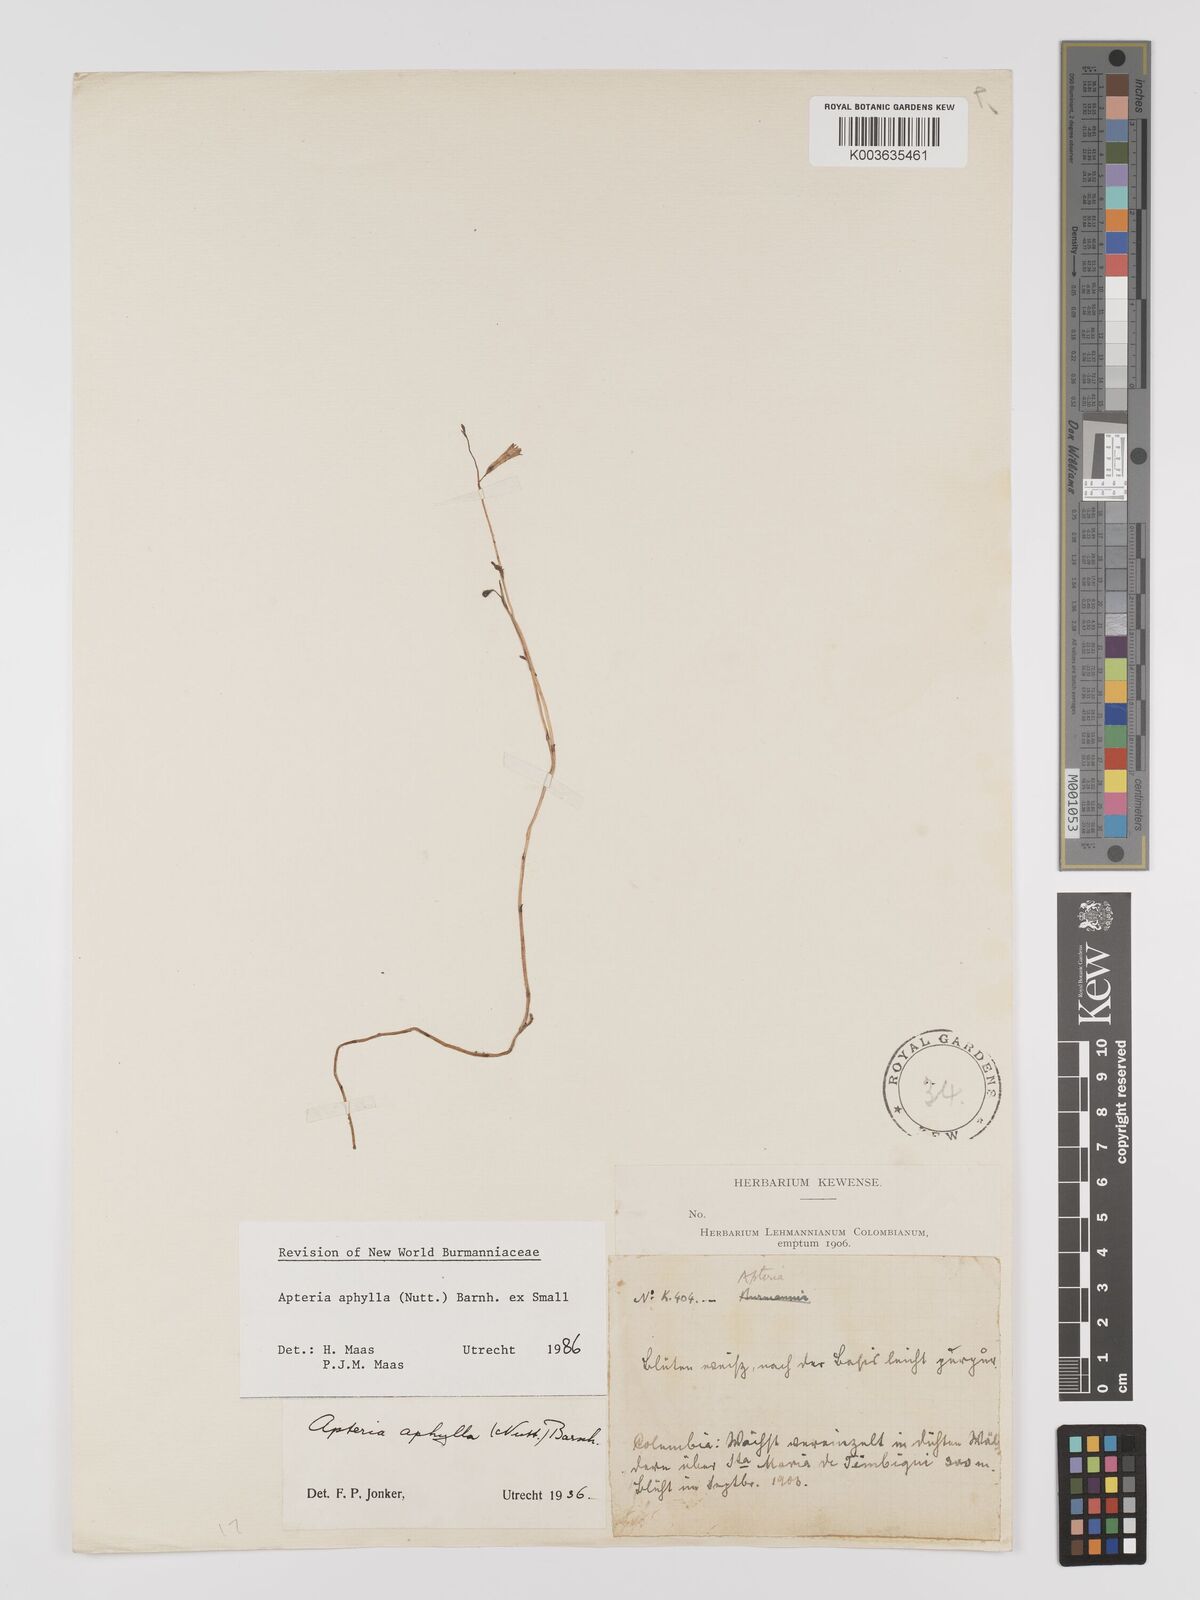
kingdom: Plantae
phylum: Tracheophyta
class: Liliopsida
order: Dioscoreales
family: Burmanniaceae
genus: Apteria
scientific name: Apteria aphylla
